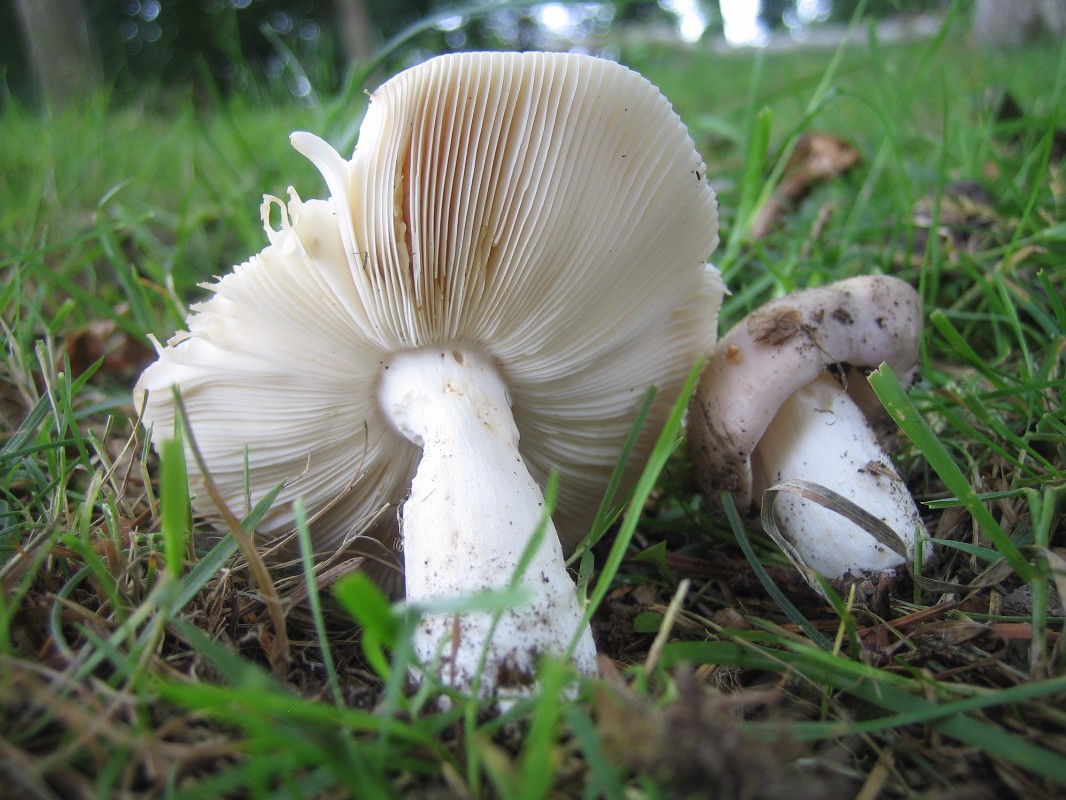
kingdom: Fungi
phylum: Basidiomycota
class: Agaricomycetes
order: Russulales
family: Russulaceae
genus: Russula
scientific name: Russula
